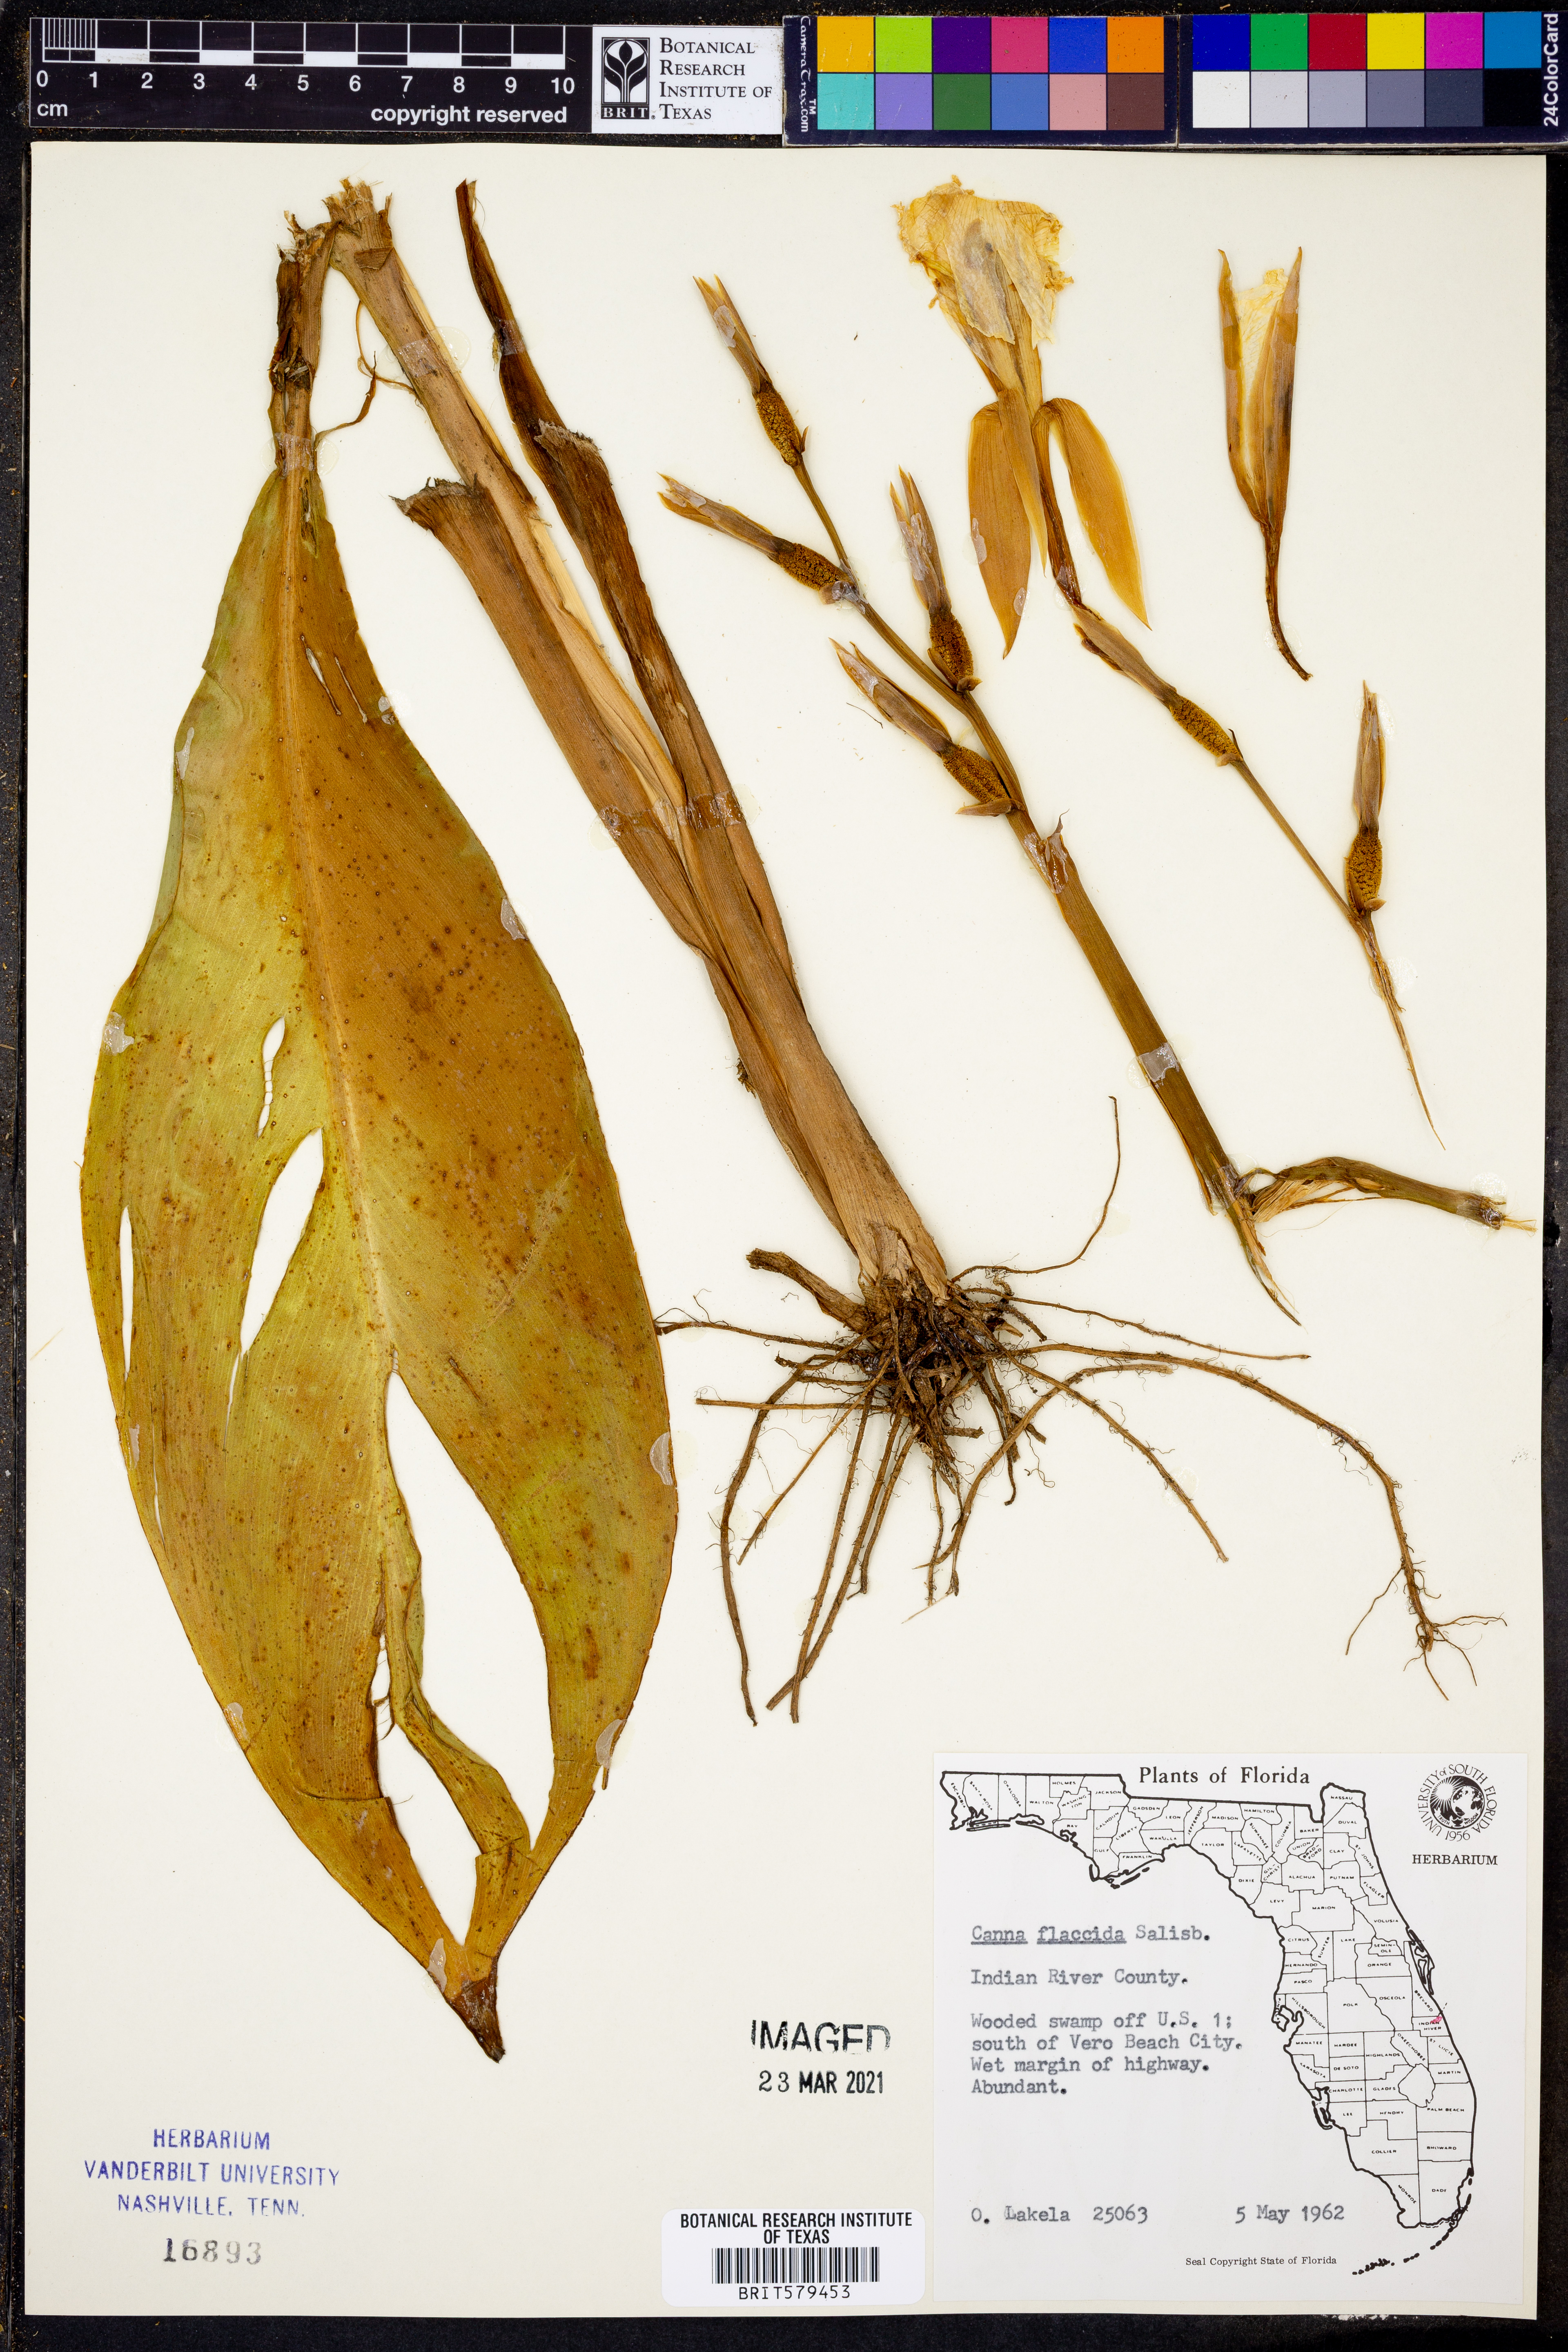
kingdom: Plantae
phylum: Tracheophyta
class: Liliopsida
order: Zingiberales
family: Cannaceae
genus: Canna
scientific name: Canna flaccida
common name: Bandana-of-the-everglades
